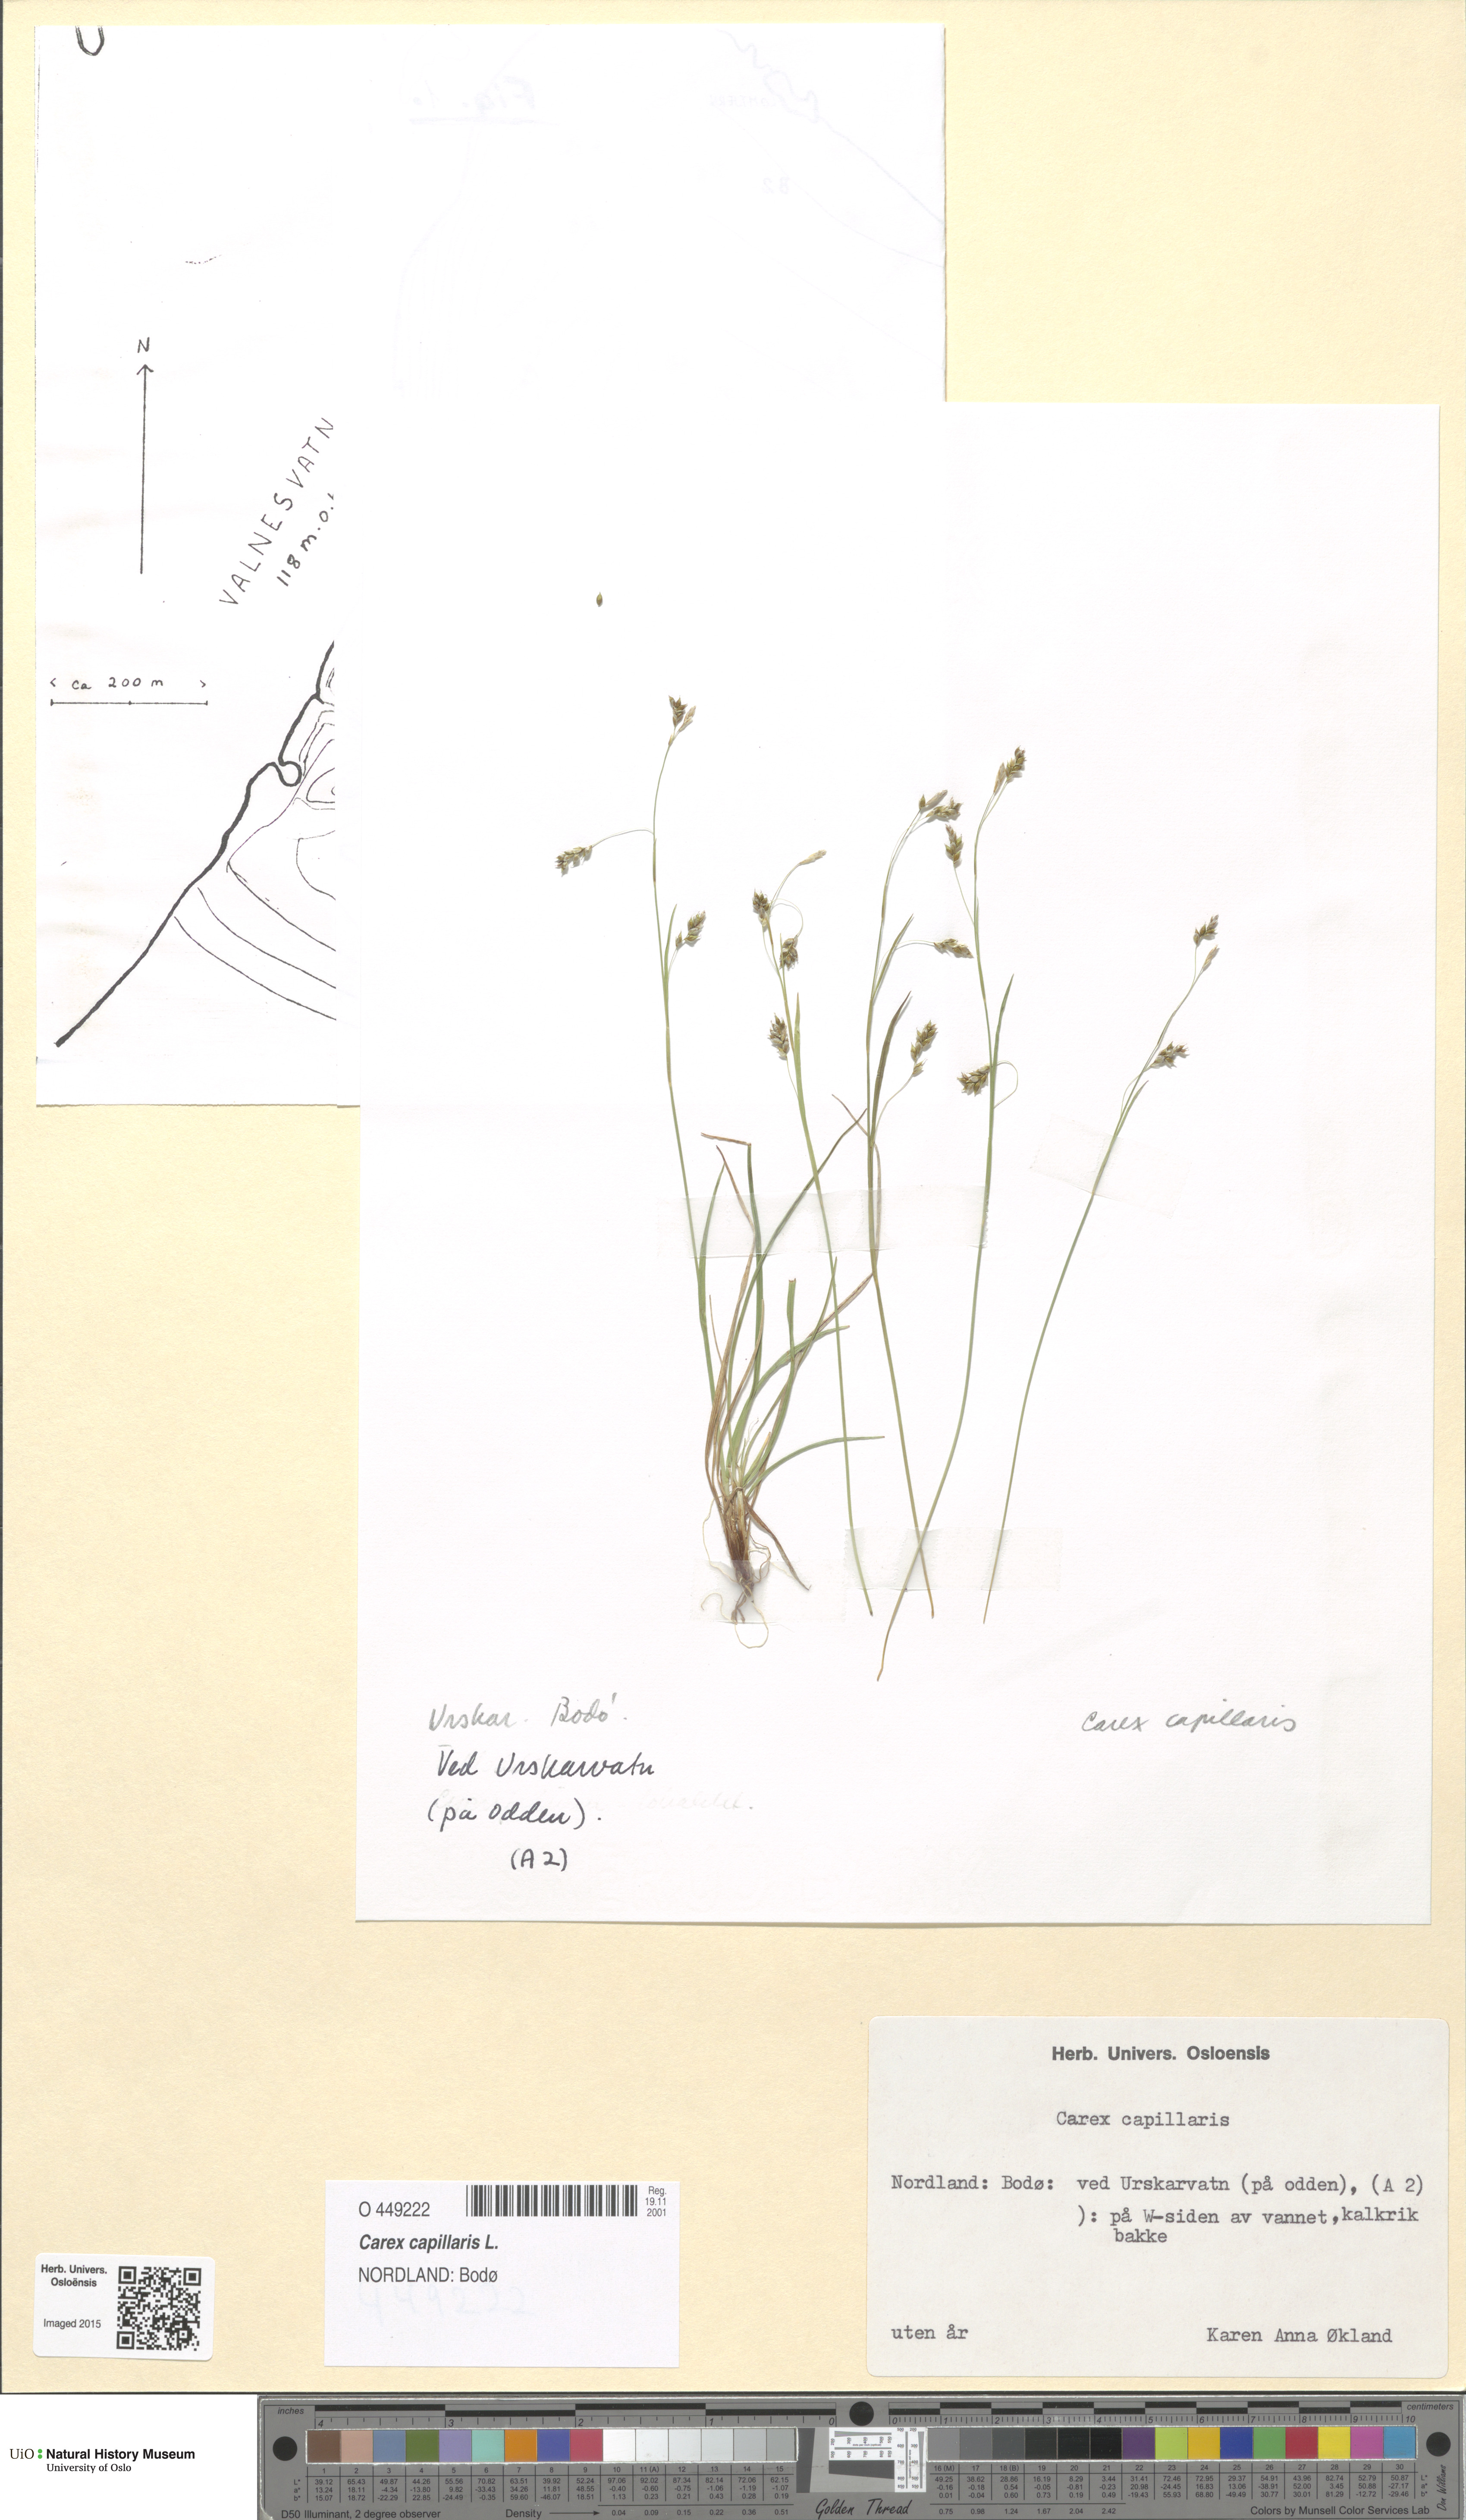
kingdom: Plantae
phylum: Tracheophyta
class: Liliopsida
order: Poales
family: Cyperaceae
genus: Carex
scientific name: Carex capillaris
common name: Hair sedge
